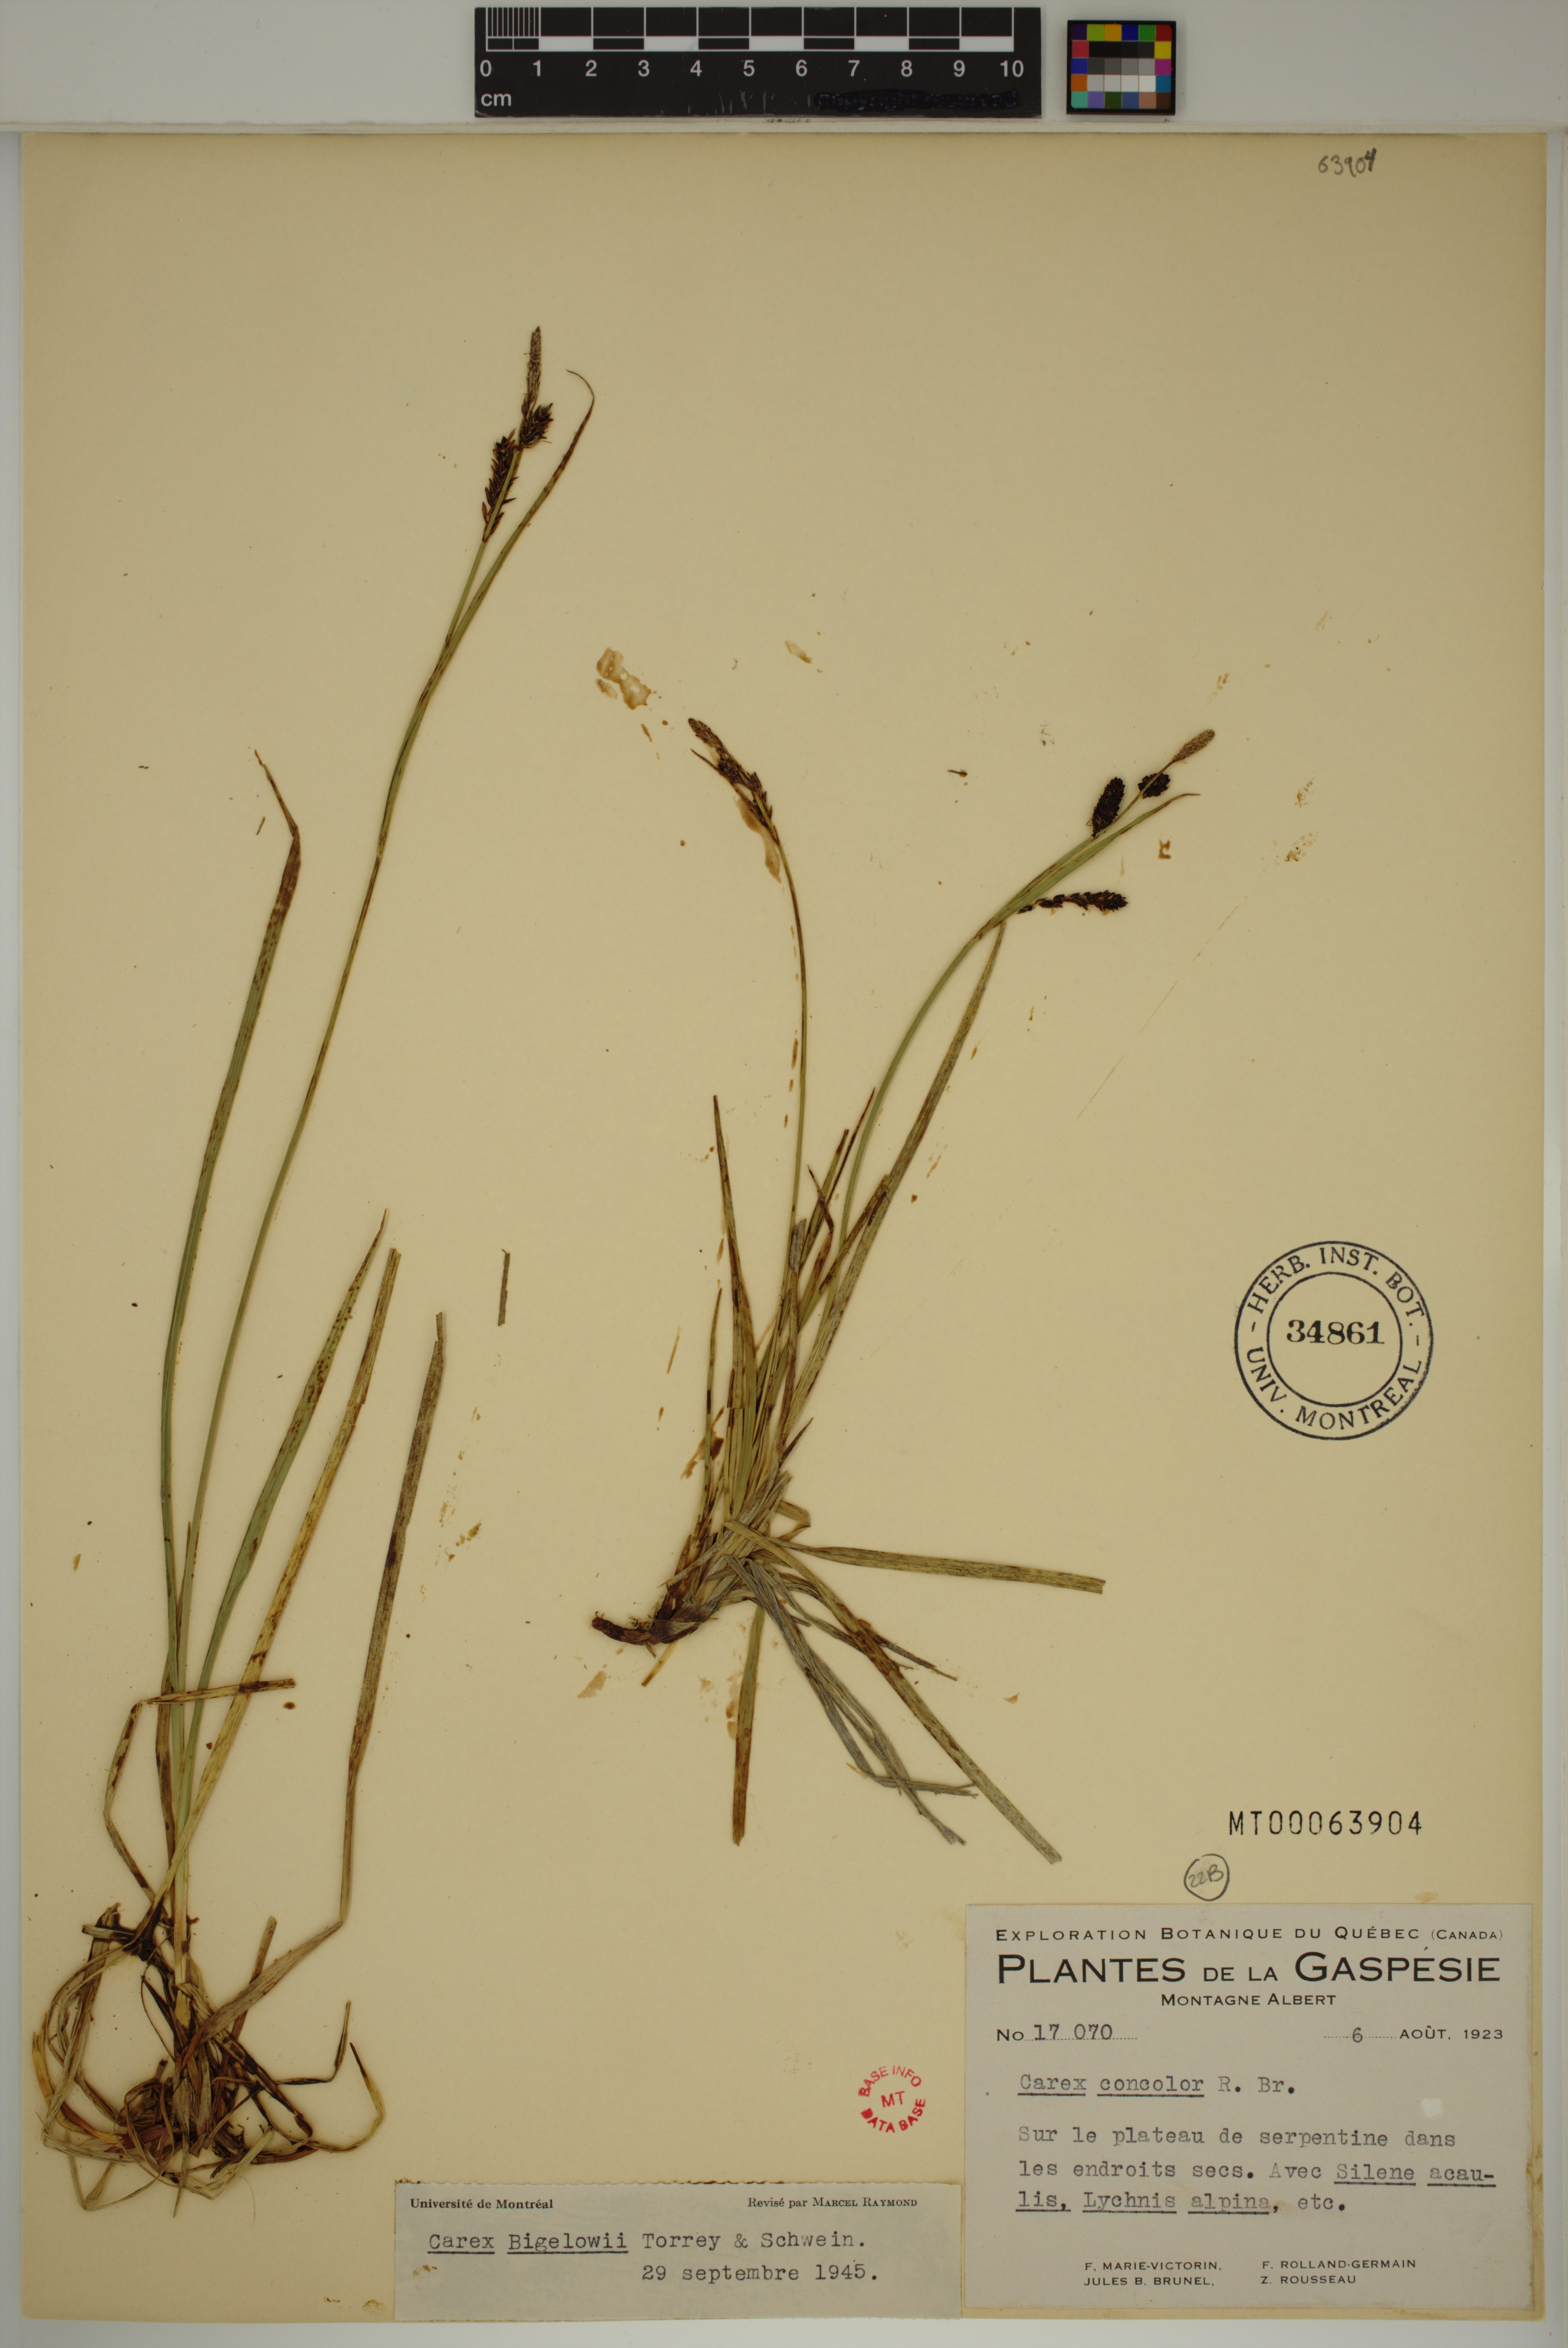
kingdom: Plantae
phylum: Tracheophyta
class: Liliopsida
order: Poales
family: Cyperaceae
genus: Carex
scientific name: Carex bigelowii
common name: Stiff sedge
